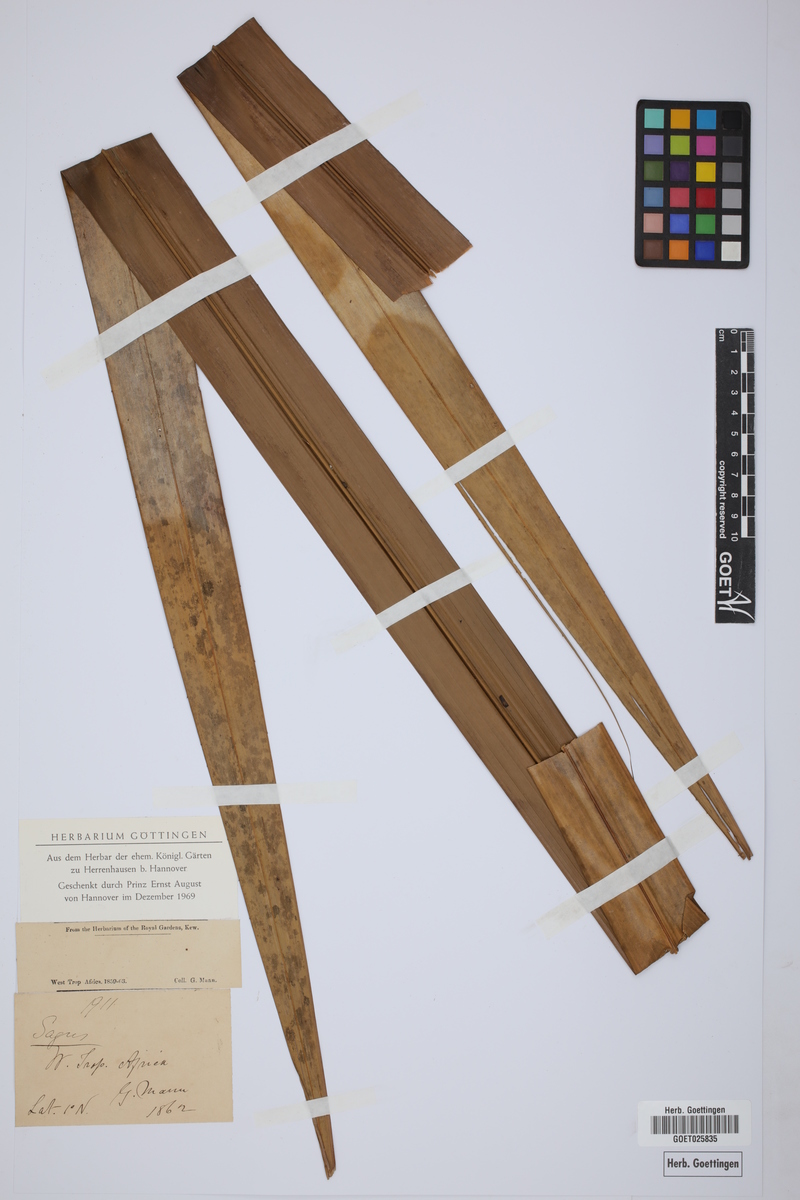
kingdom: Plantae
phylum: Tracheophyta
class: Liliopsida
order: Arecales
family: Arecaceae
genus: Raphia
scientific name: Raphia hookeri
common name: Wine palm
